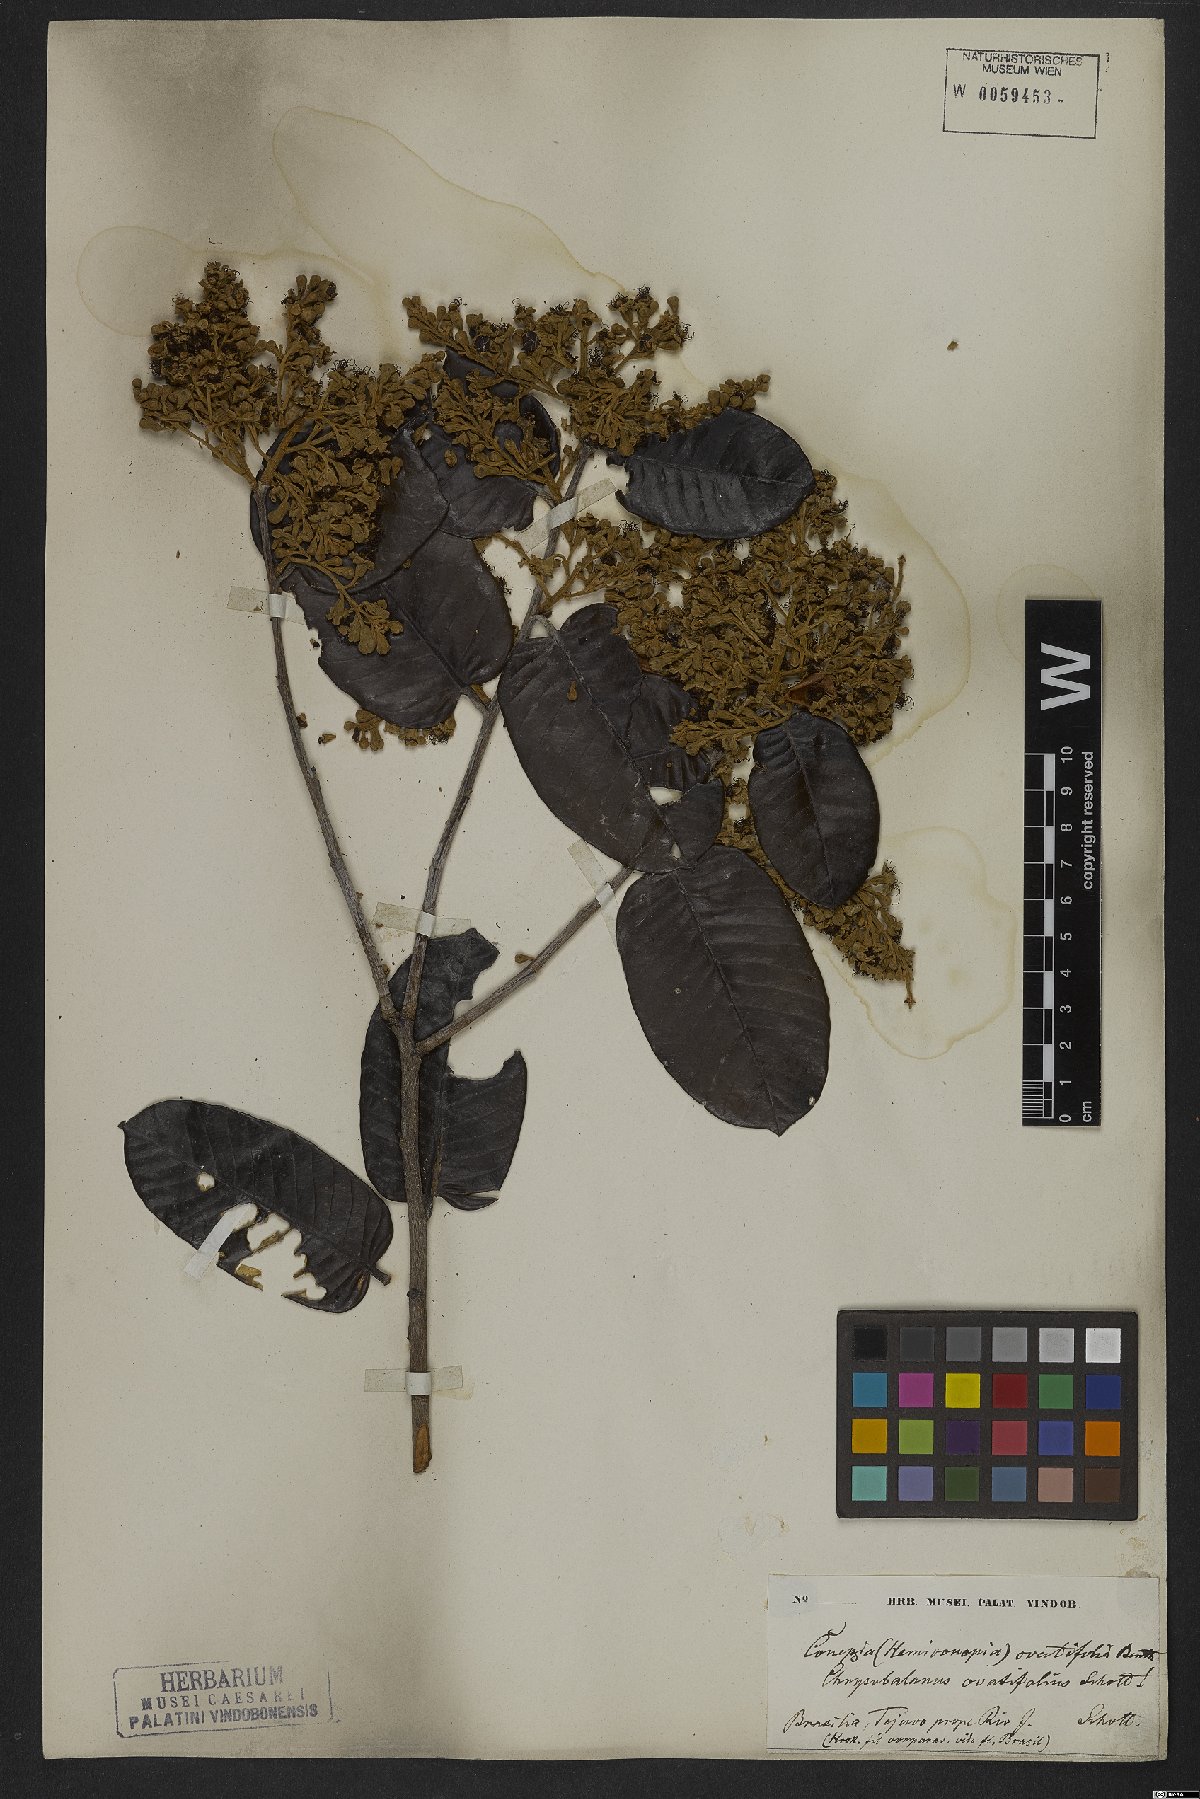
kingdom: Plantae
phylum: Tracheophyta
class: Magnoliopsida
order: Malpighiales
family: Chrysobalanaceae
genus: Couepia
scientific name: Couepia ovalifolia
